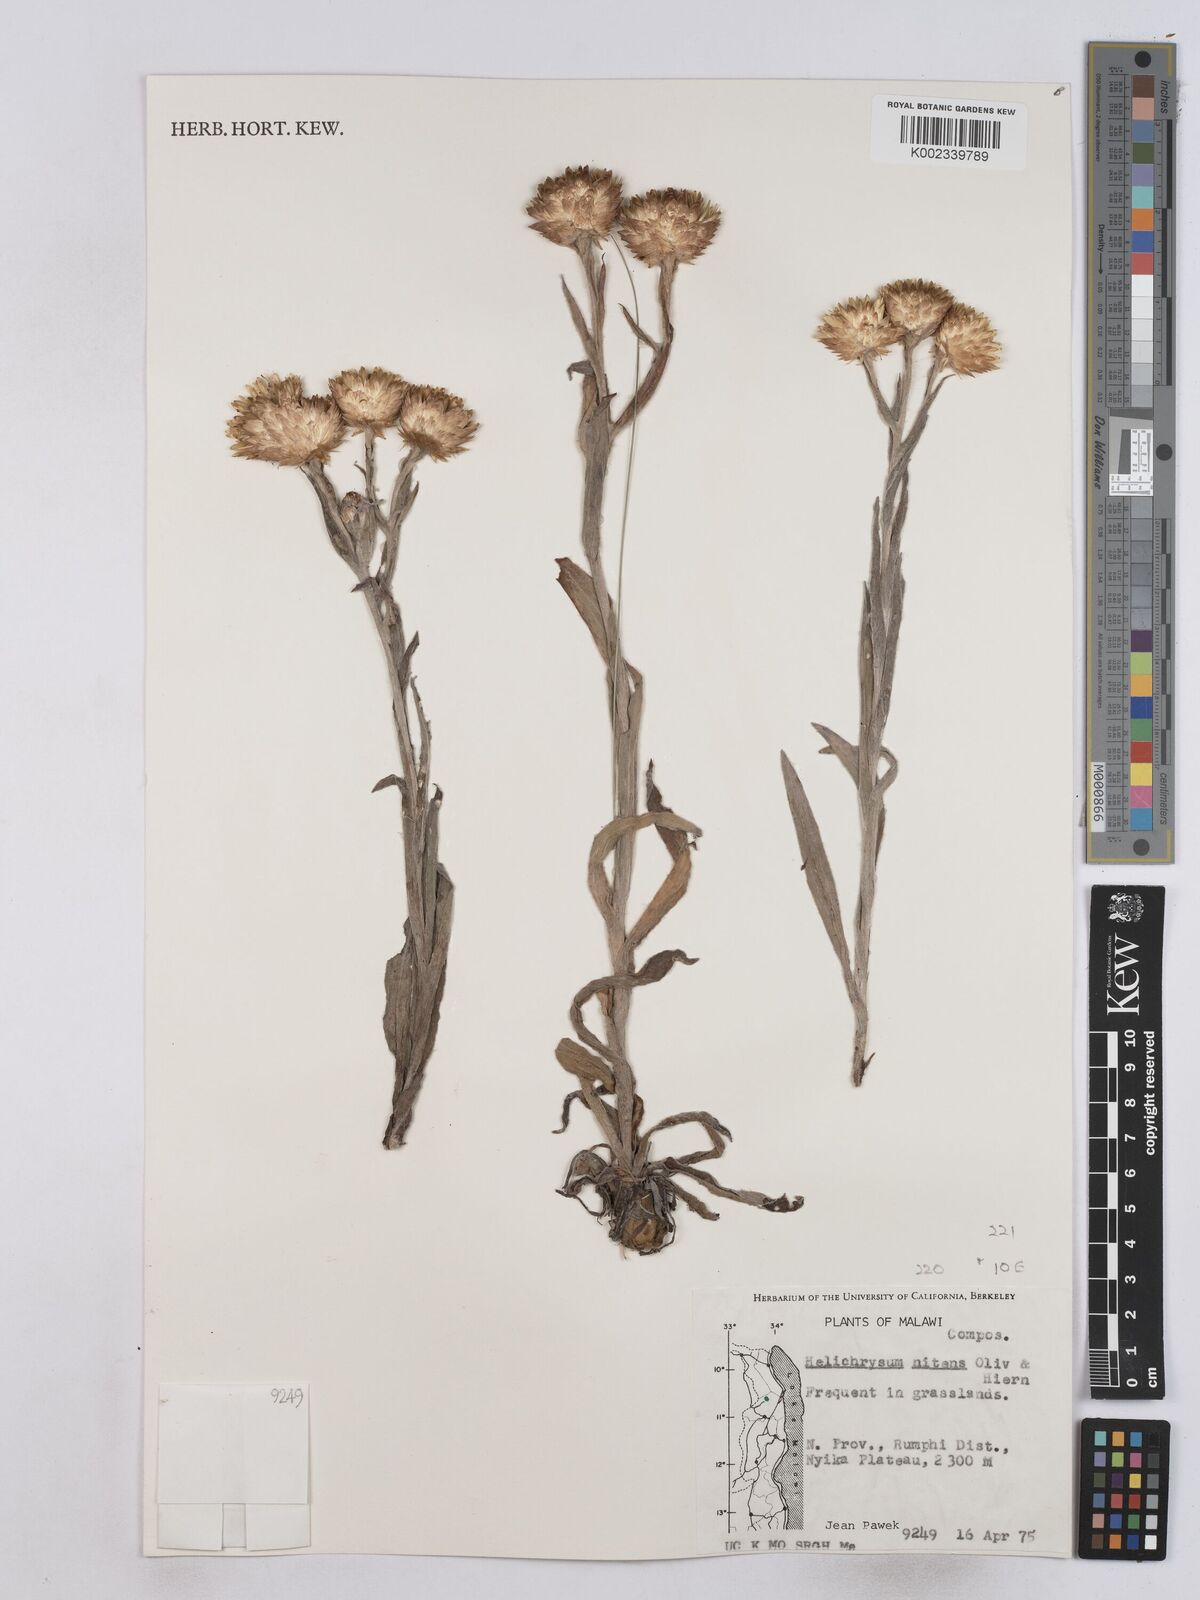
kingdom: Plantae
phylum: Tracheophyta
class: Magnoliopsida
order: Asterales
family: Asteraceae
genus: Helichrysum
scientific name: Helichrysum nitens
